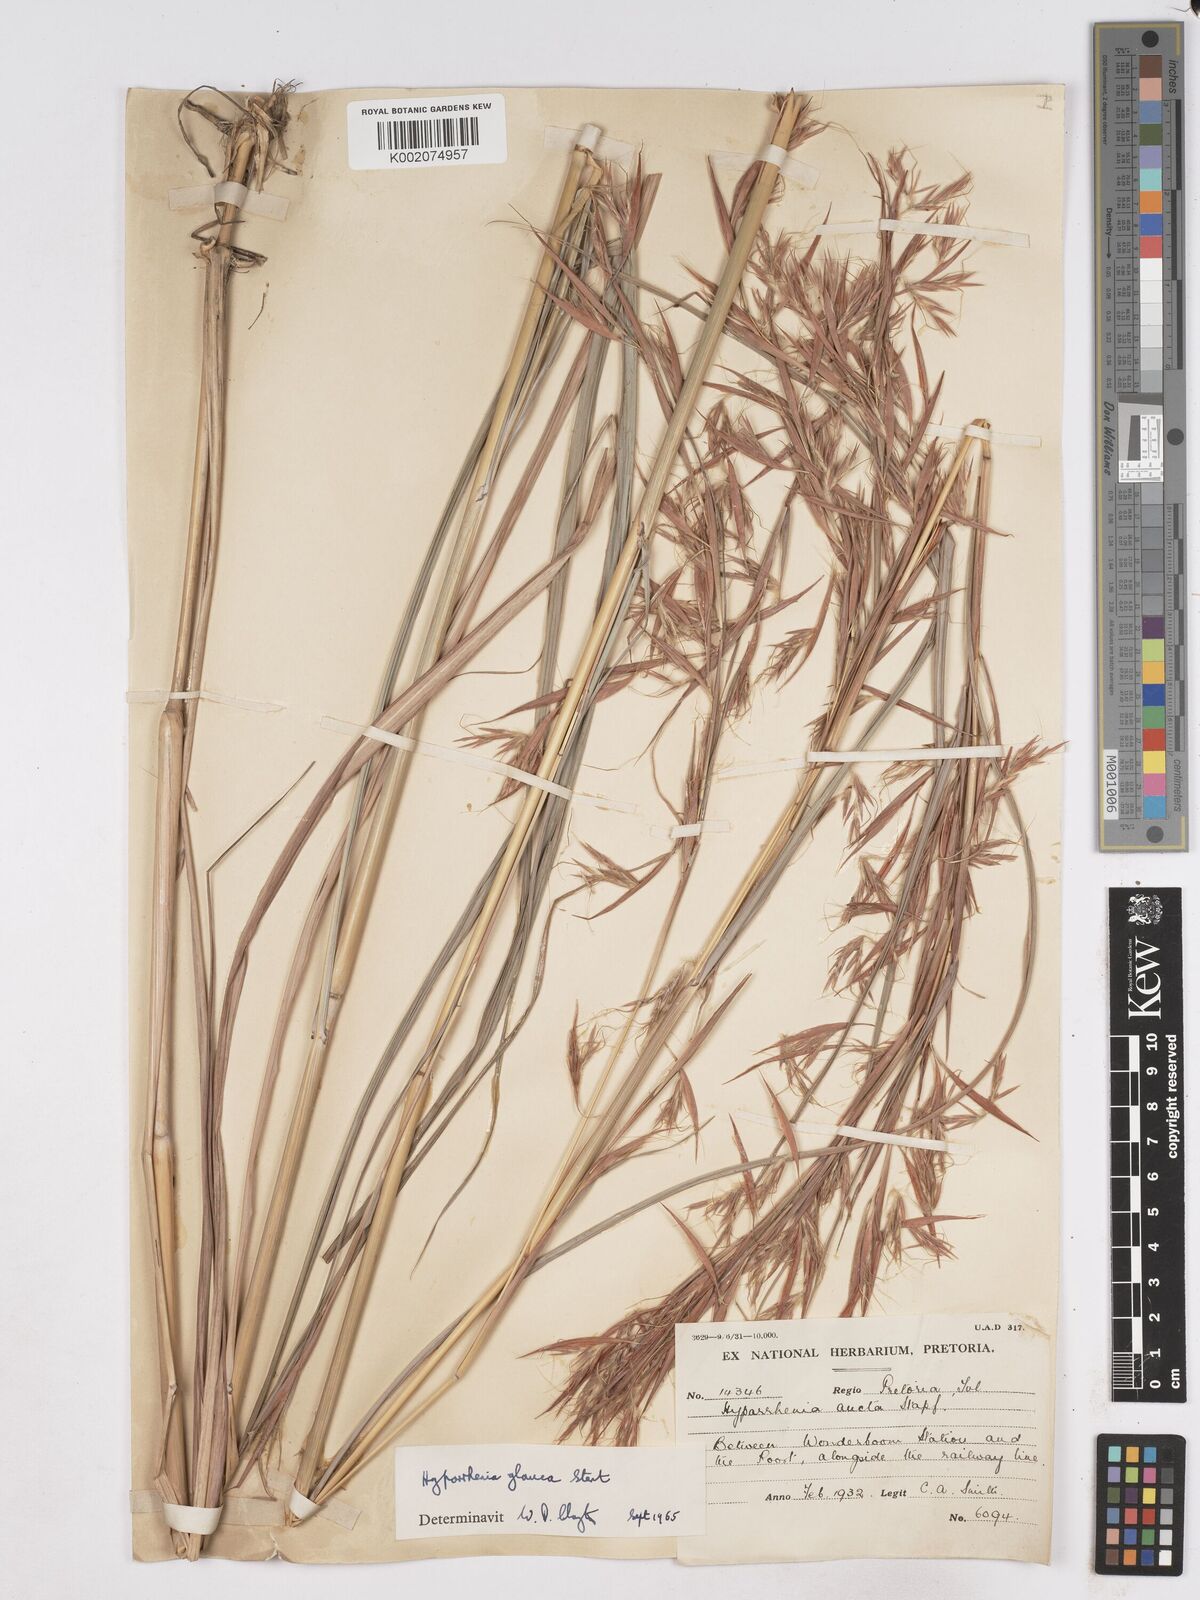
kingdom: Plantae
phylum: Tracheophyta
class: Liliopsida
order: Poales
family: Poaceae
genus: Hyparrhenia
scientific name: Hyparrhenia tamba
